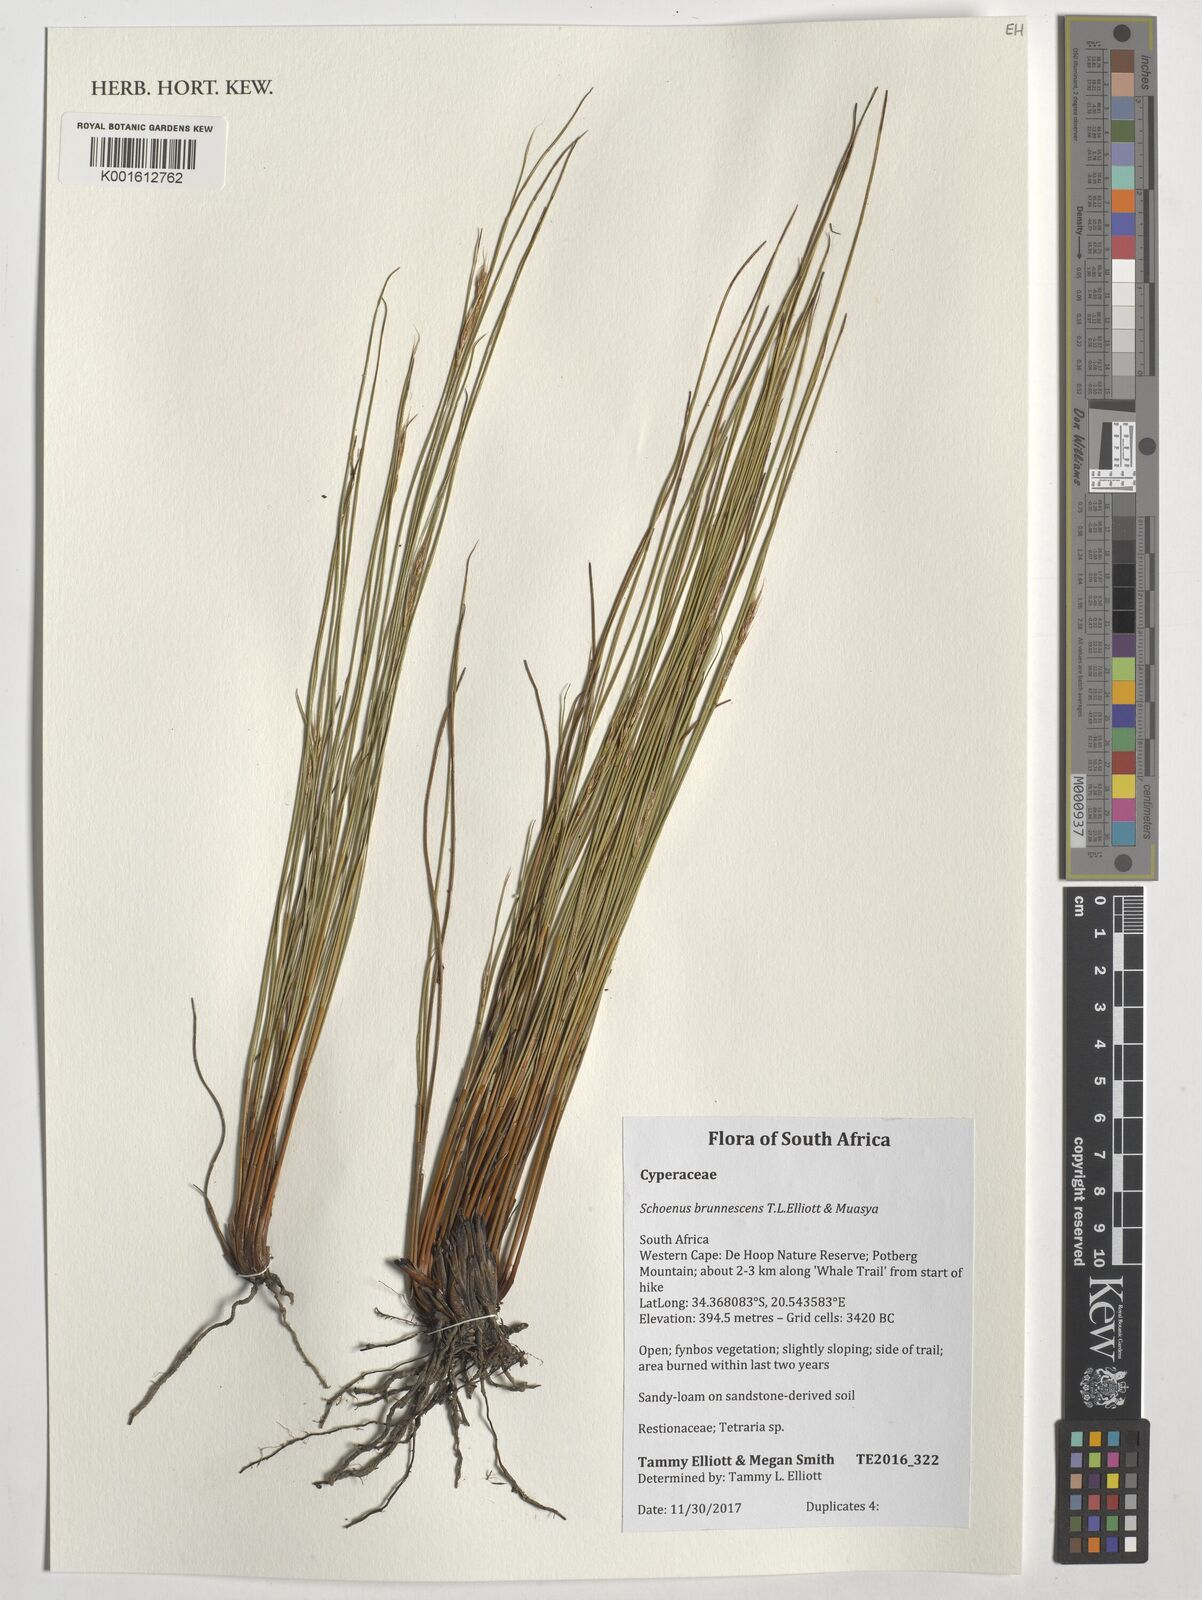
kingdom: Plantae
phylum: Tracheophyta
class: Liliopsida
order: Poales
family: Cyperaceae
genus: Blysmus
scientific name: Blysmus rufus
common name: Saltmarsh flat-sedge
